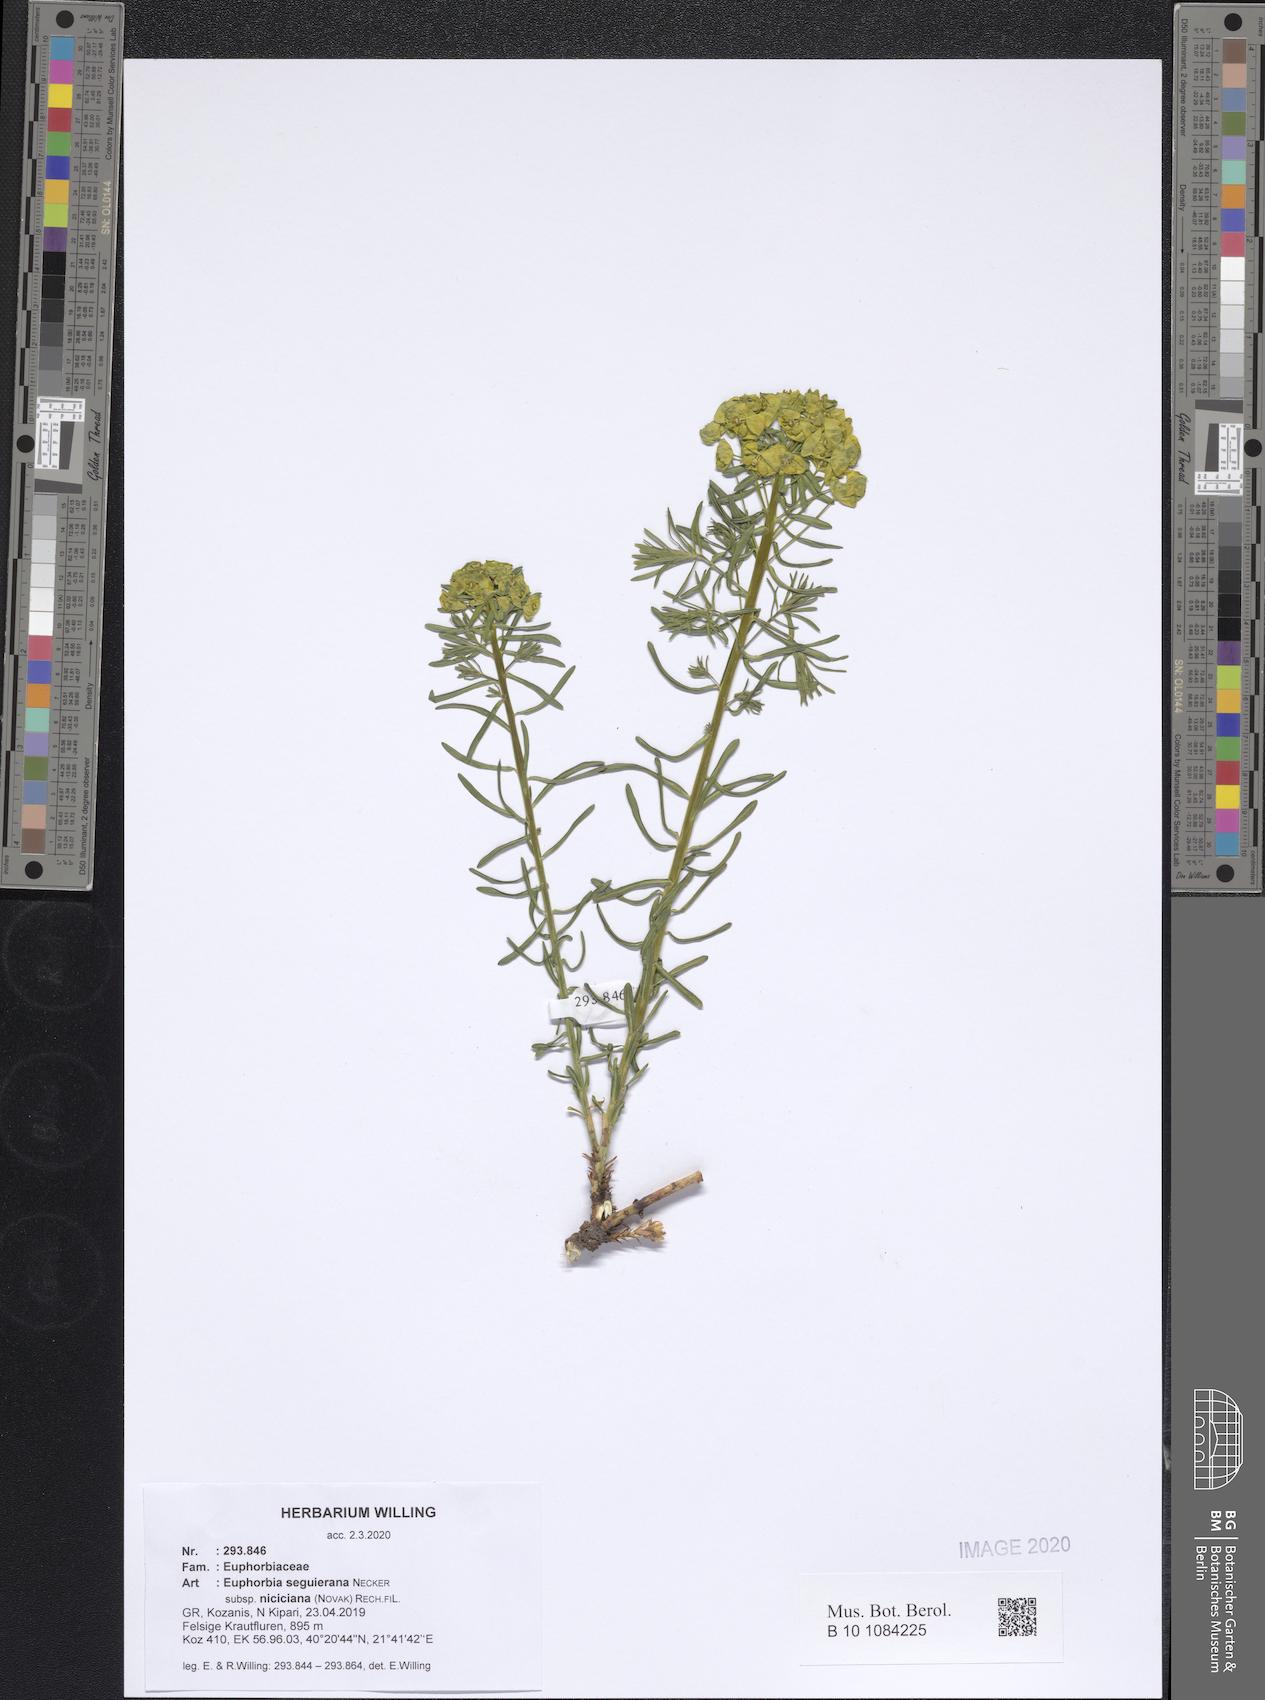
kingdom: Plantae
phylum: Tracheophyta
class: Magnoliopsida
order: Malpighiales
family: Euphorbiaceae
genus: Euphorbia
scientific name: Euphorbia seguieriana
